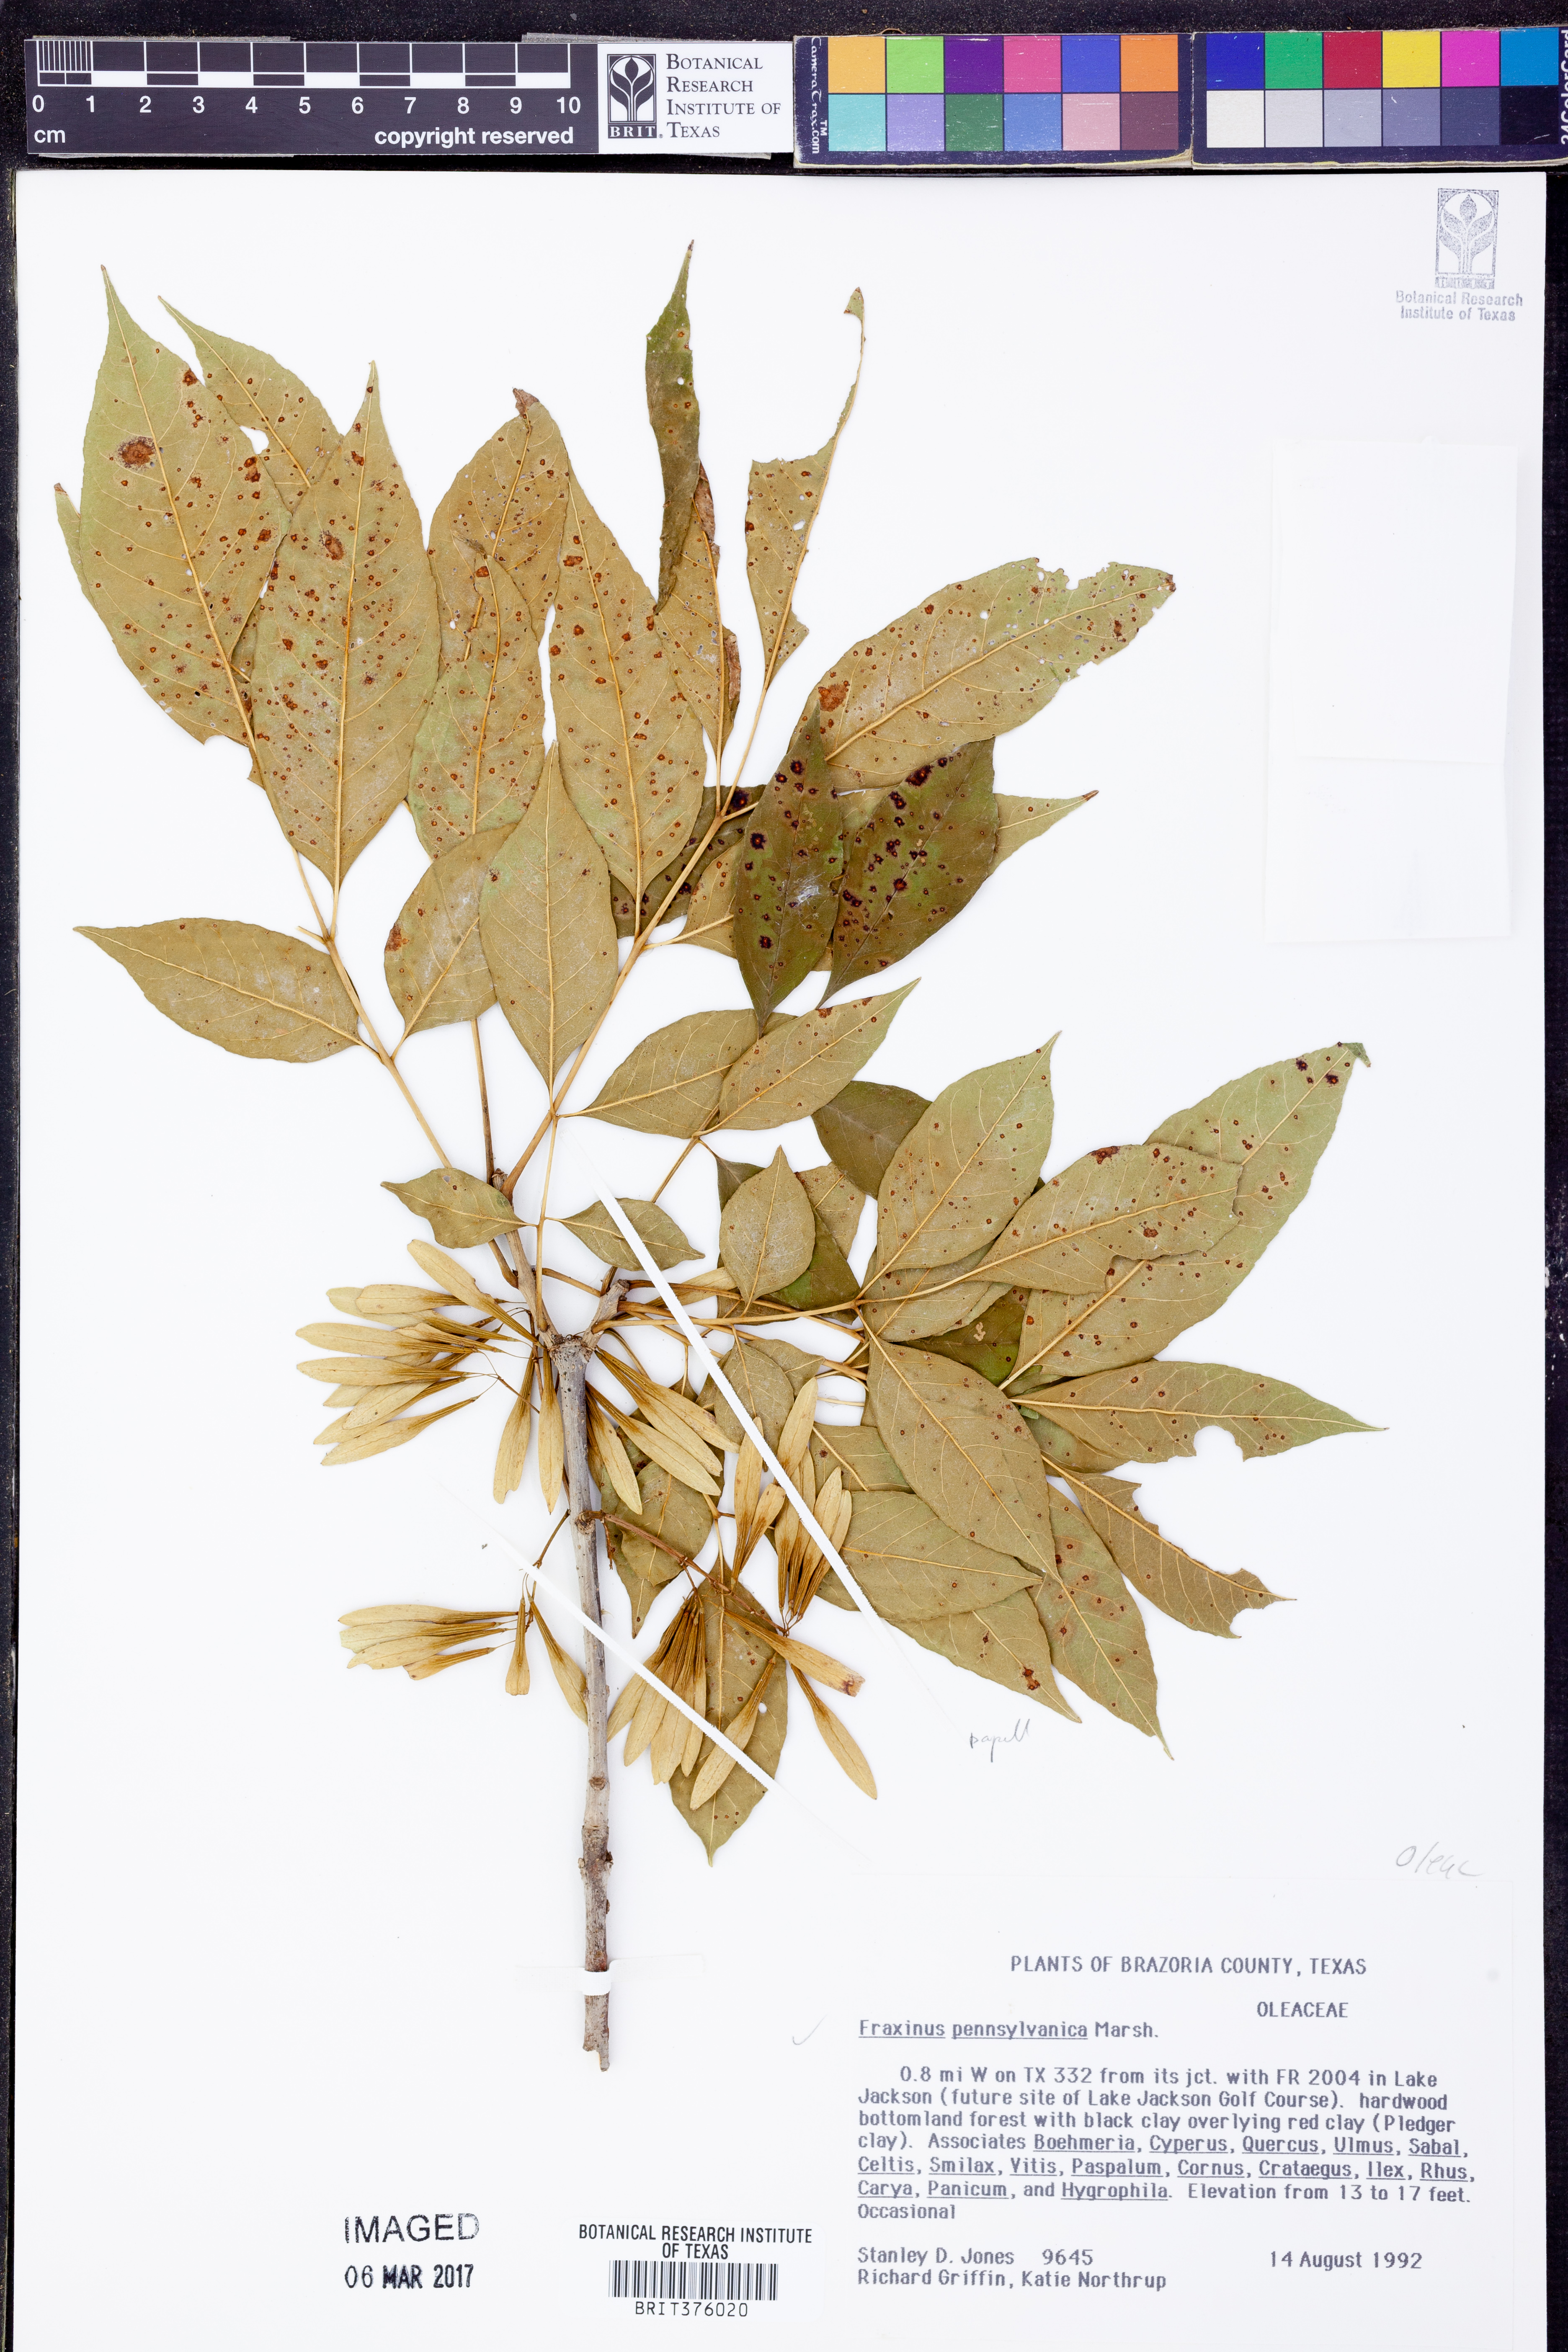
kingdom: Plantae
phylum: Tracheophyta
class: Magnoliopsida
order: Lamiales
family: Oleaceae
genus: Fraxinus
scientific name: Fraxinus pennsylvanica
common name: Green ash
